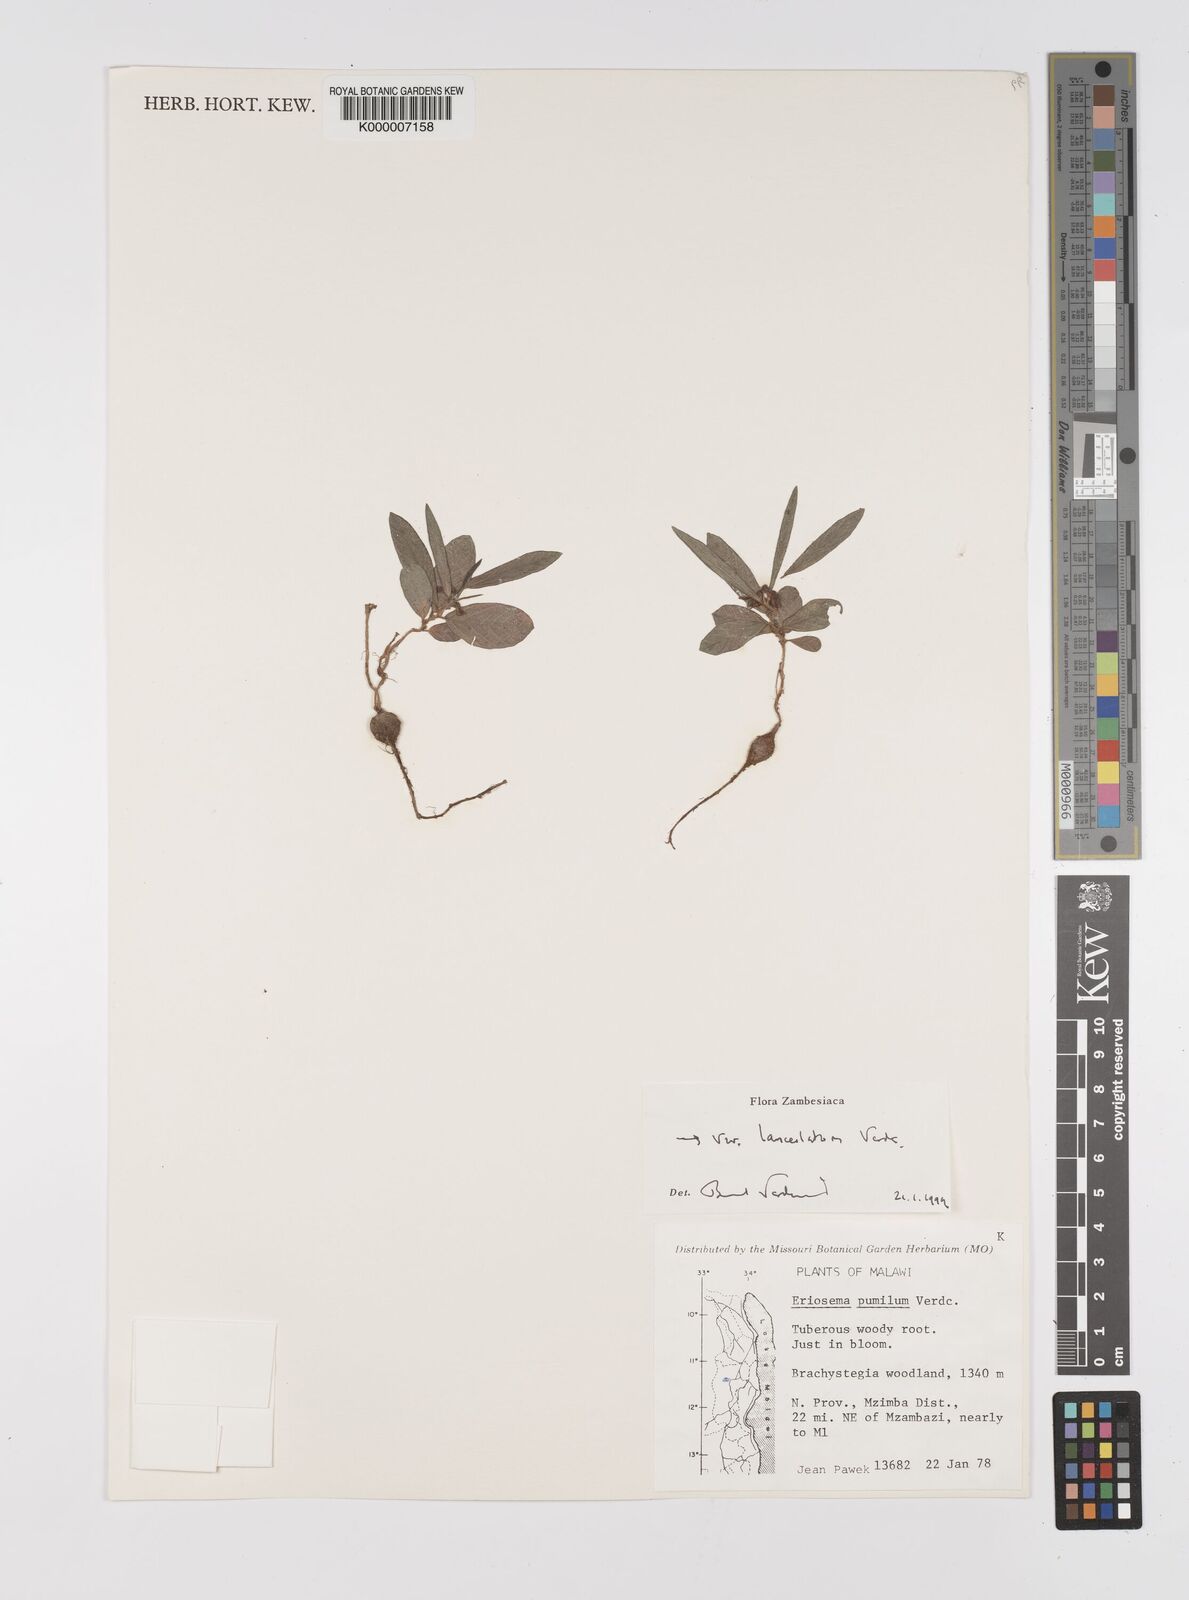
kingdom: Plantae
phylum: Tracheophyta
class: Magnoliopsida
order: Fabales
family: Fabaceae
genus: Eriosema
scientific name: Eriosema pumilum
